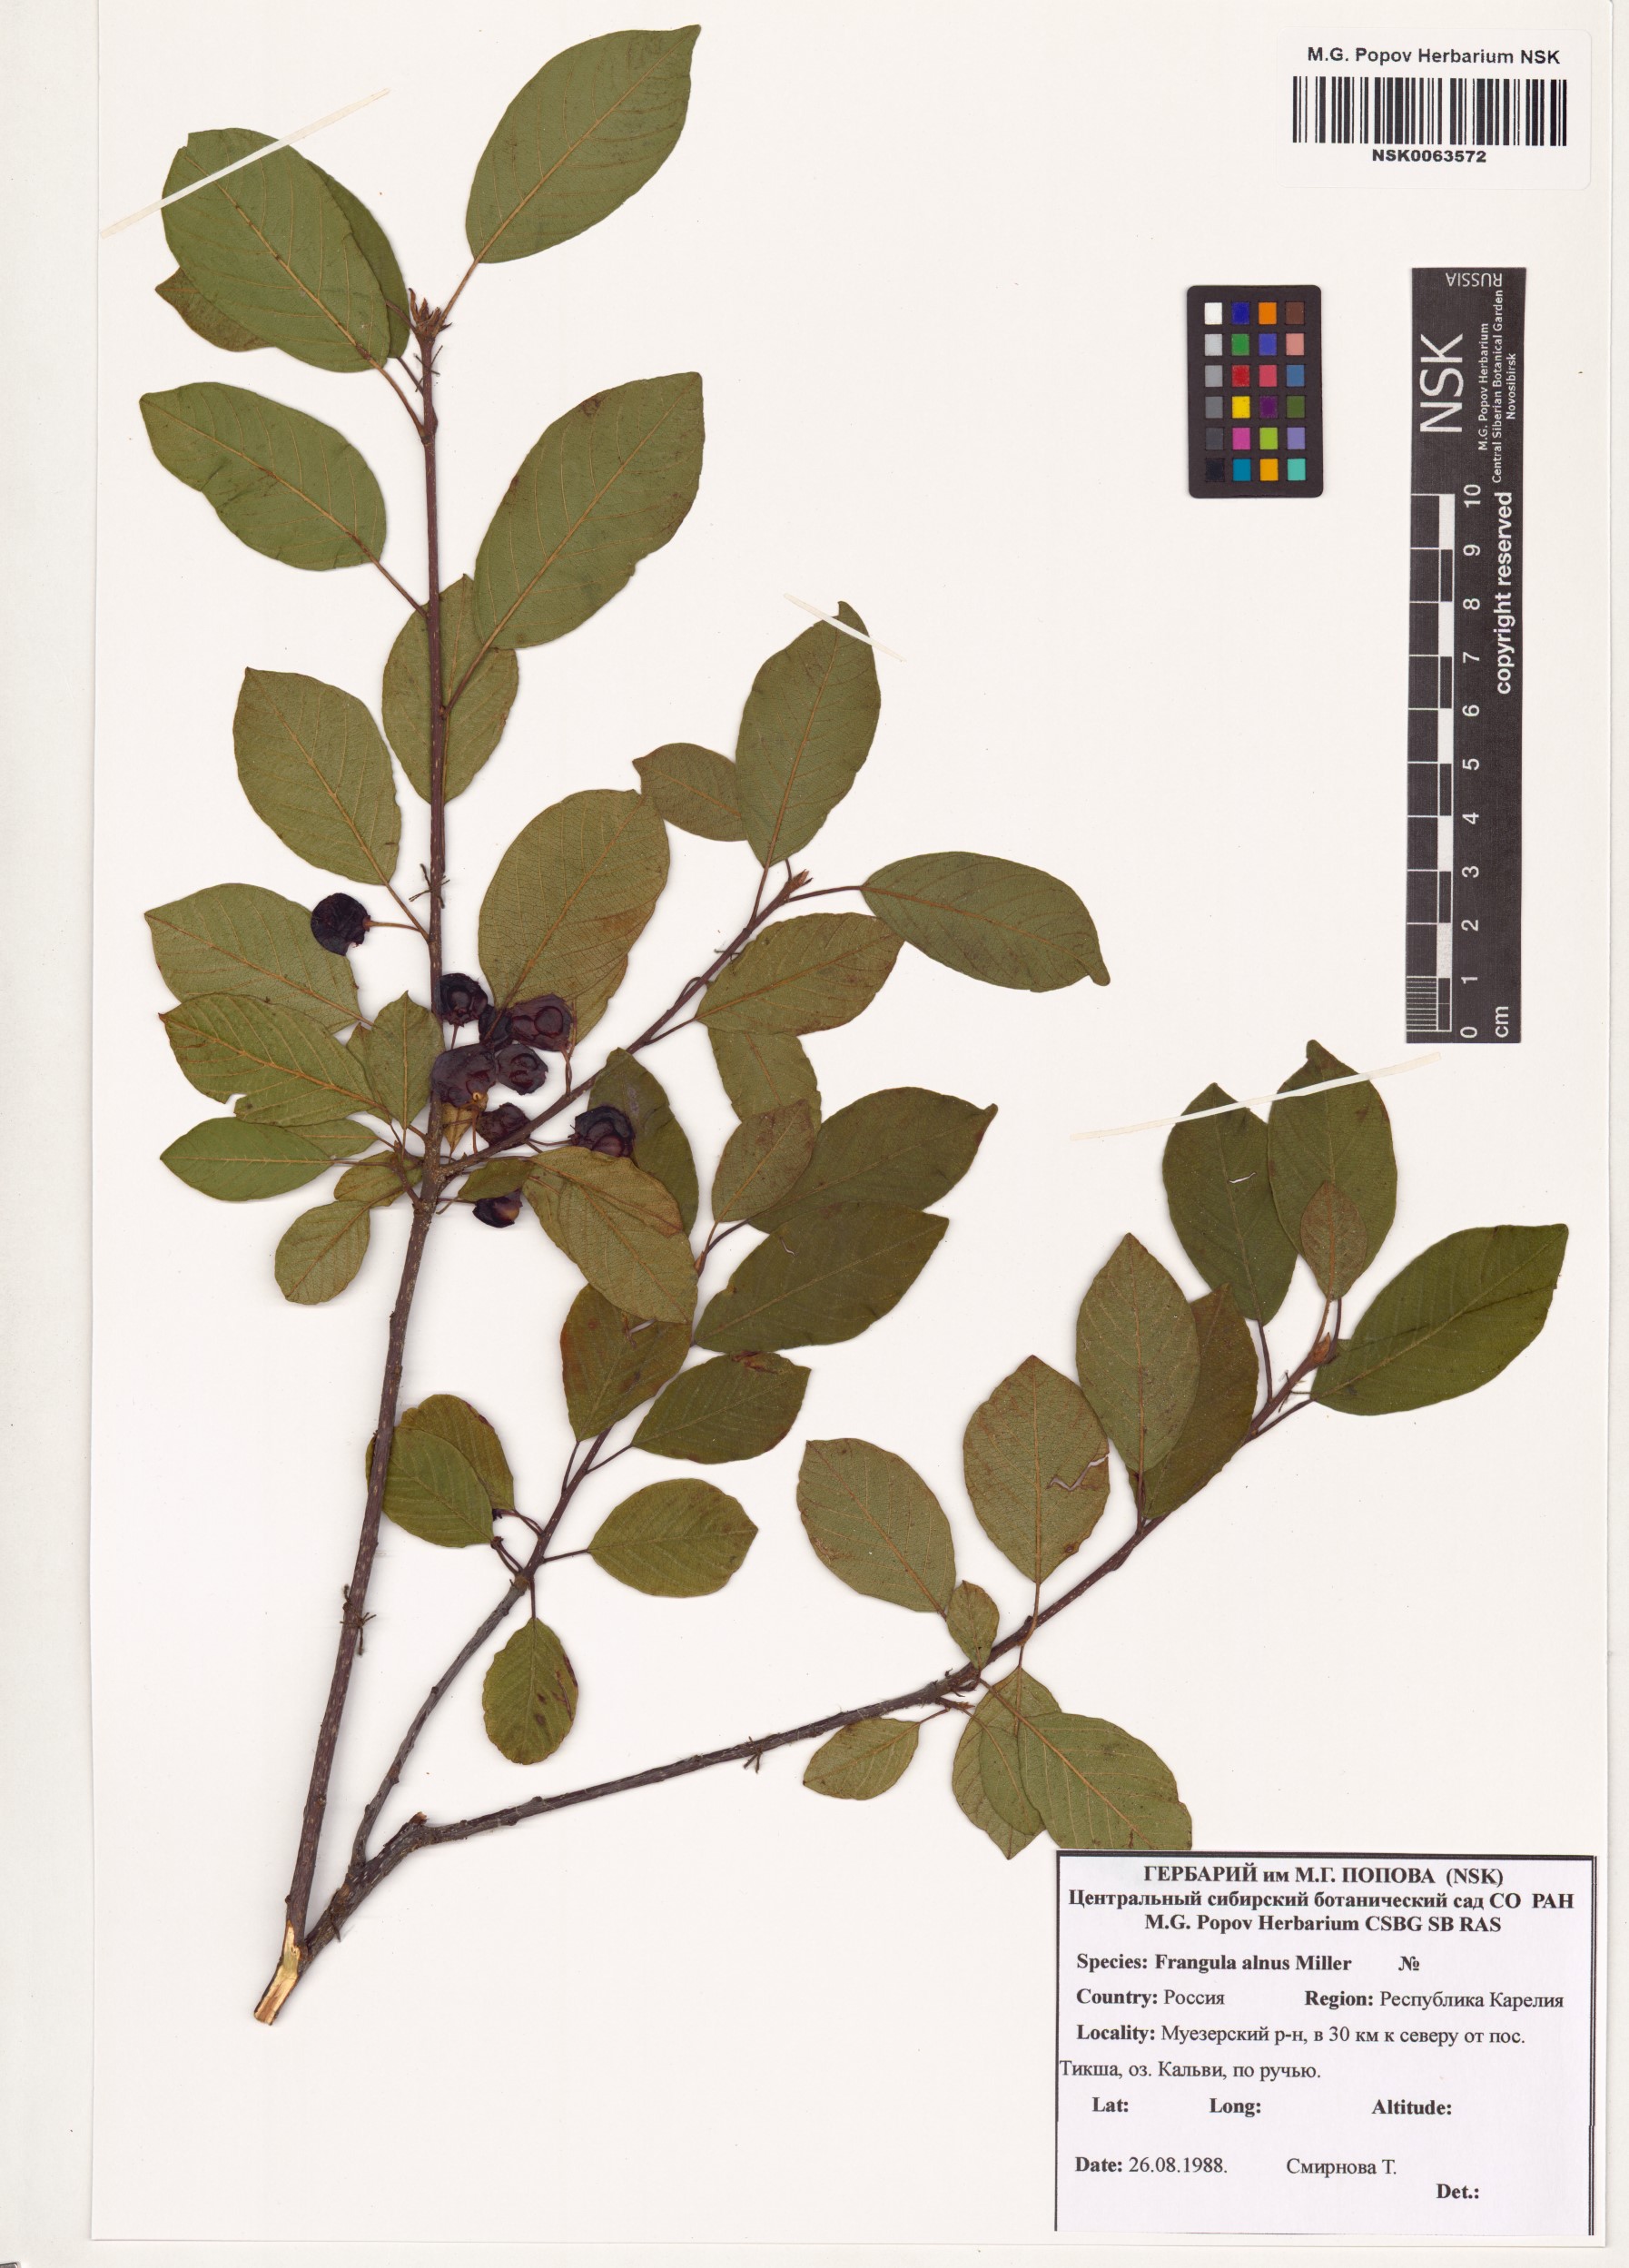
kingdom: Plantae
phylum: Tracheophyta
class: Magnoliopsida
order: Rosales
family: Rhamnaceae
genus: Frangula
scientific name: Frangula alnus
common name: Alder buckthorn
